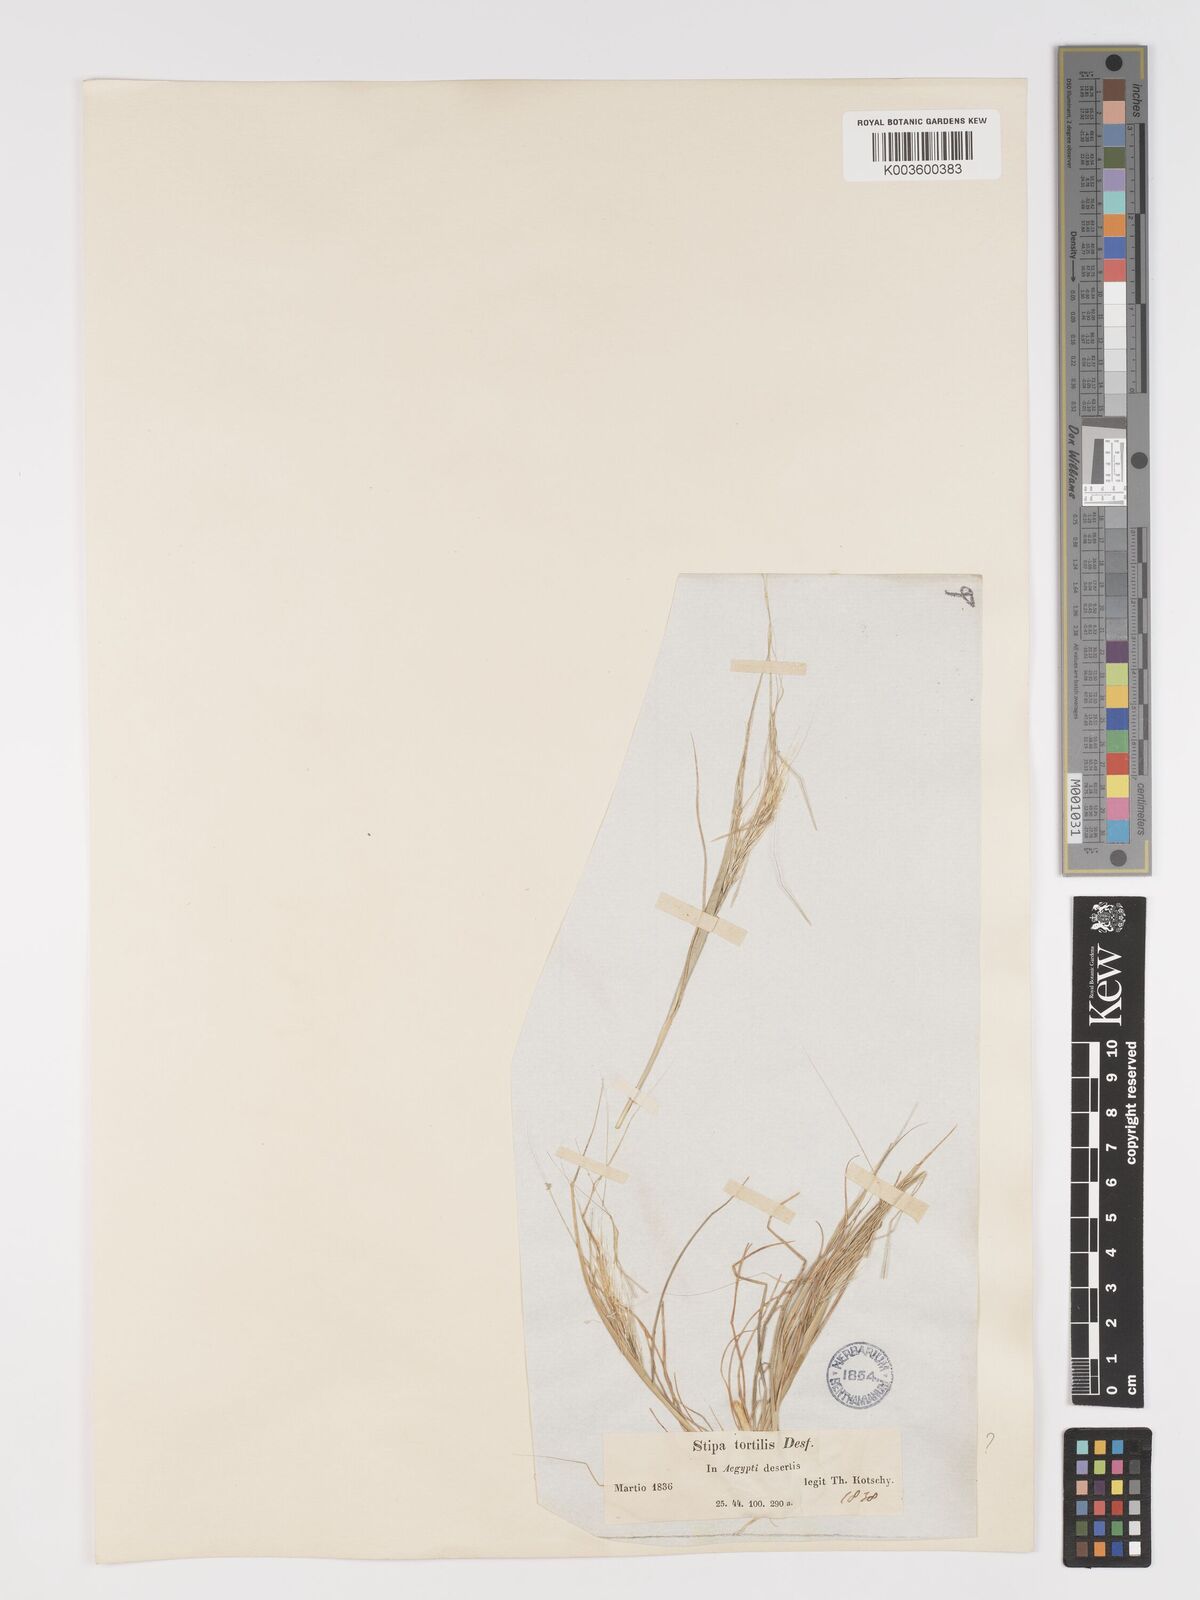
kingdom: Plantae
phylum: Tracheophyta
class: Liliopsida
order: Poales
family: Poaceae
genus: Stipellula
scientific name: Stipellula capensis
